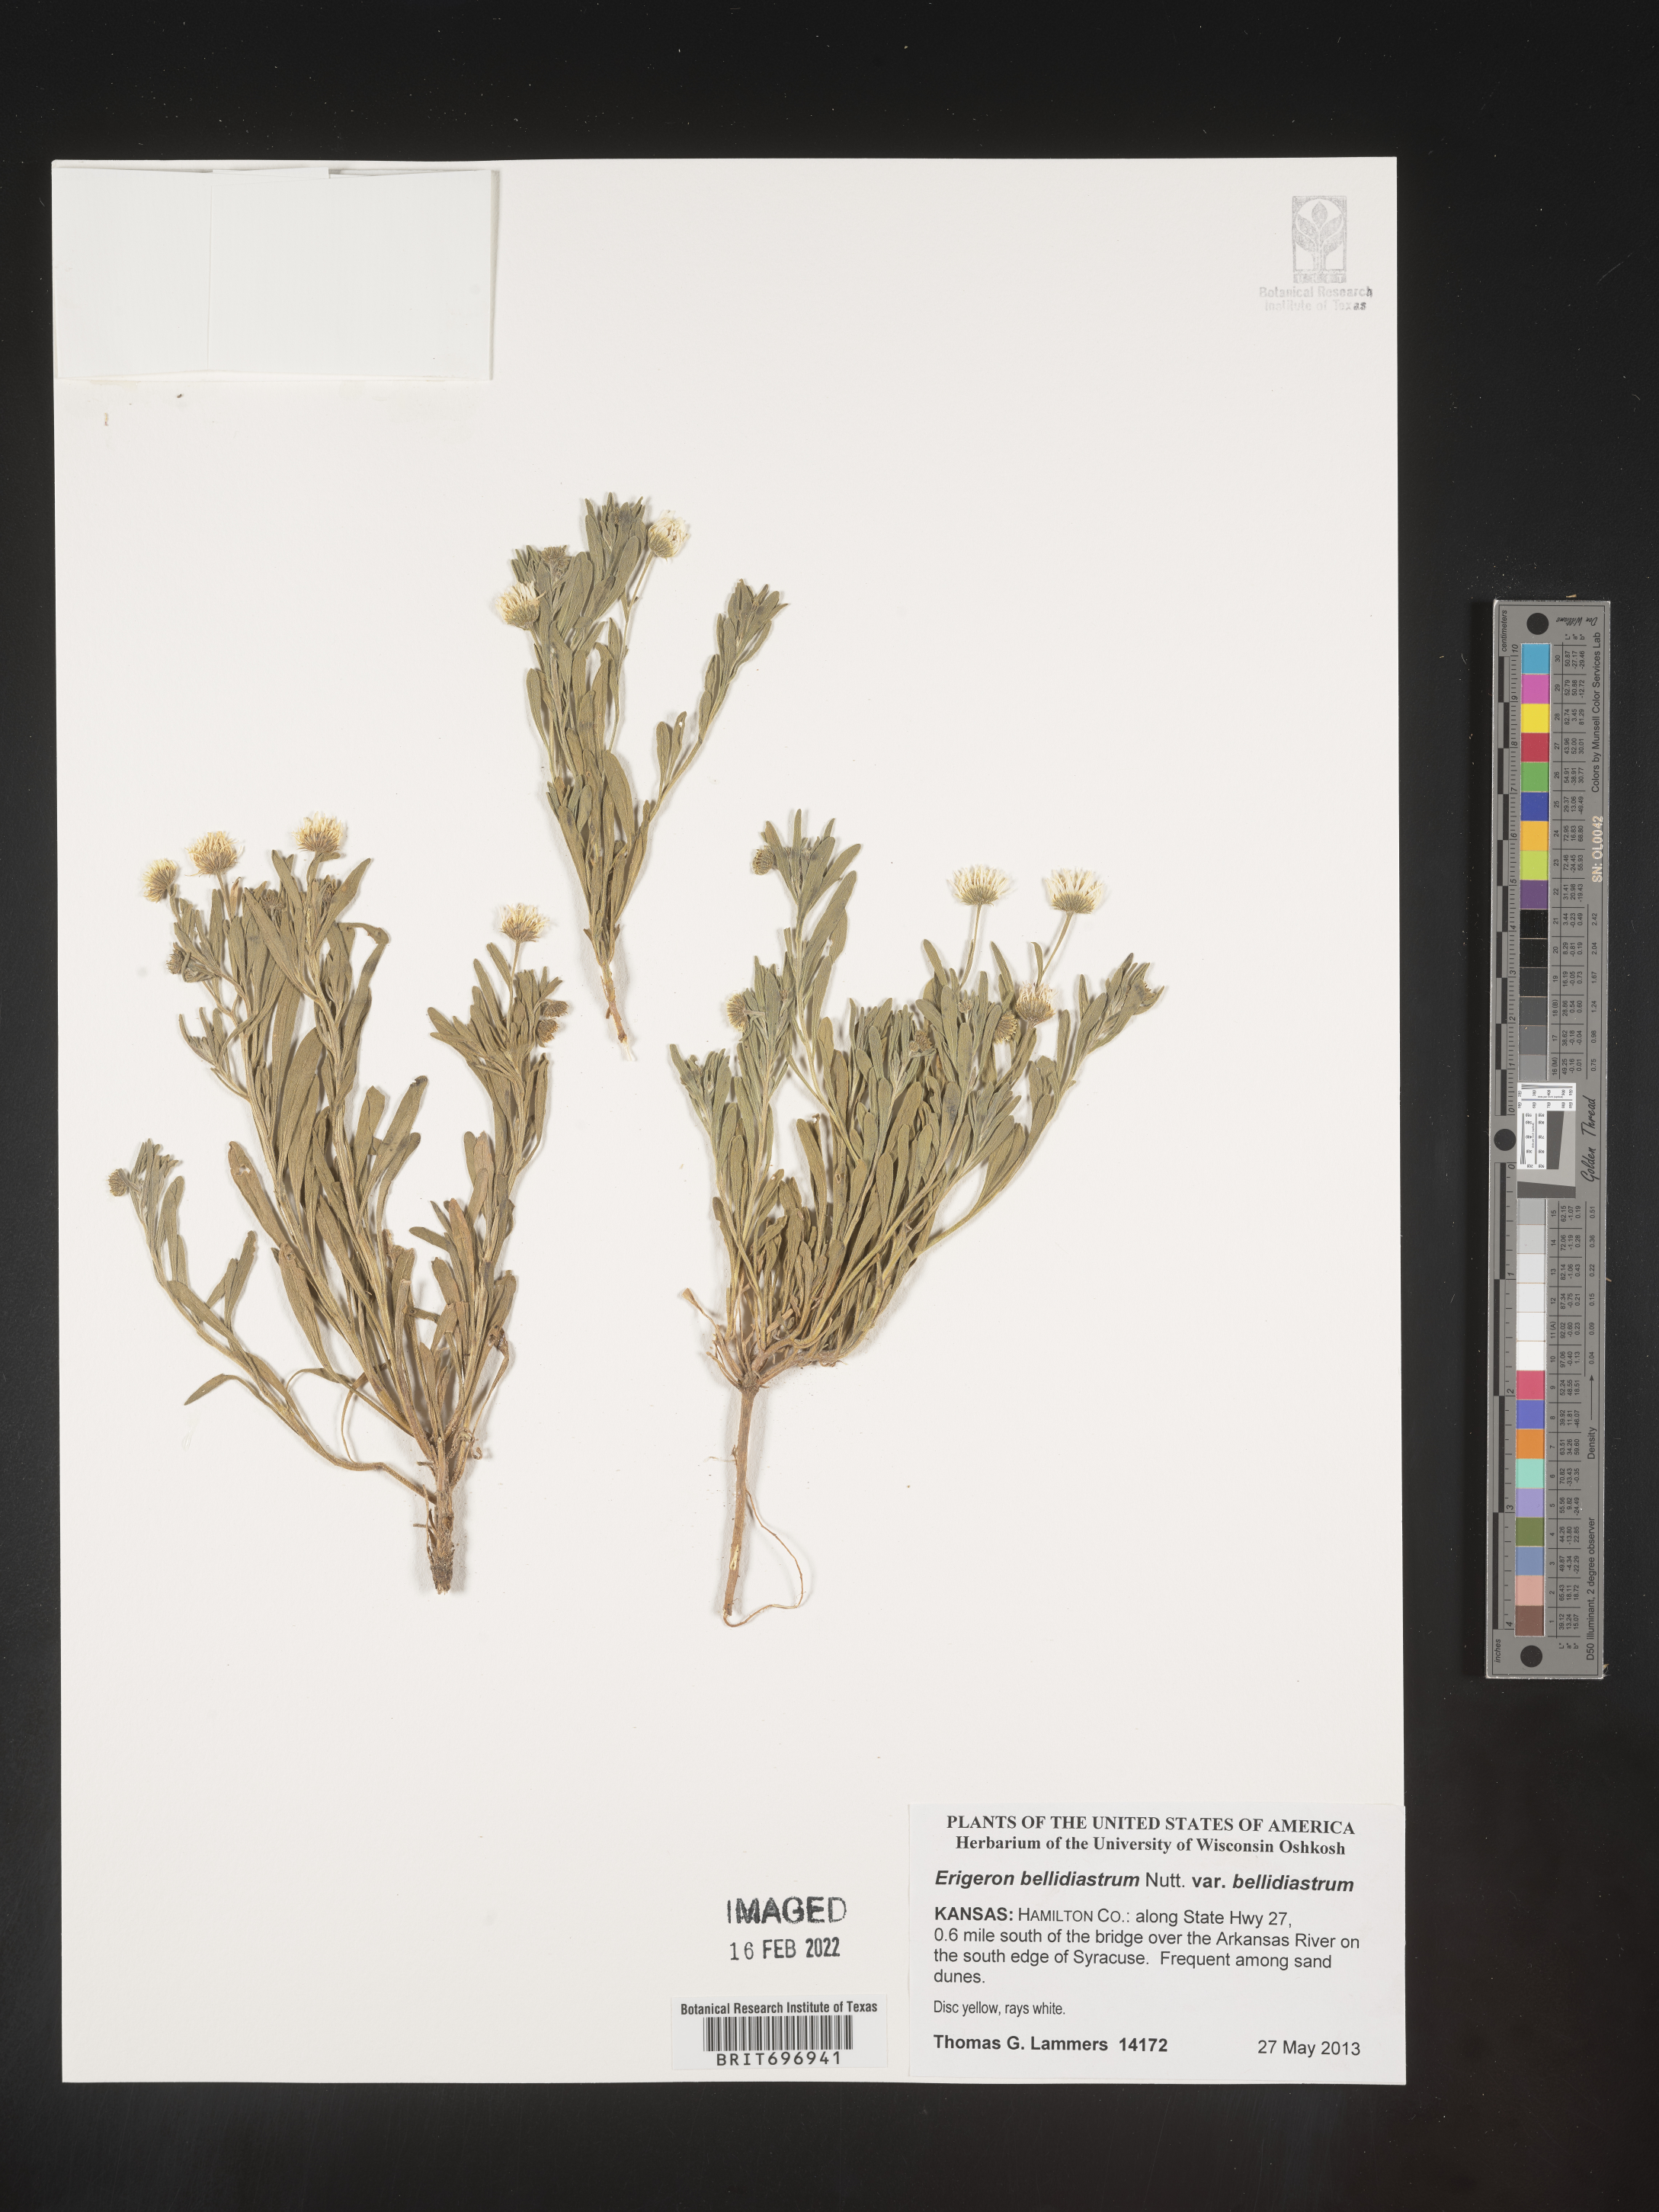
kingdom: Plantae
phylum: Tracheophyta
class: Magnoliopsida
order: Asterales
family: Asteraceae
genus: Erigeron
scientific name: Erigeron bellidiastrum
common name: Sand fleabane
